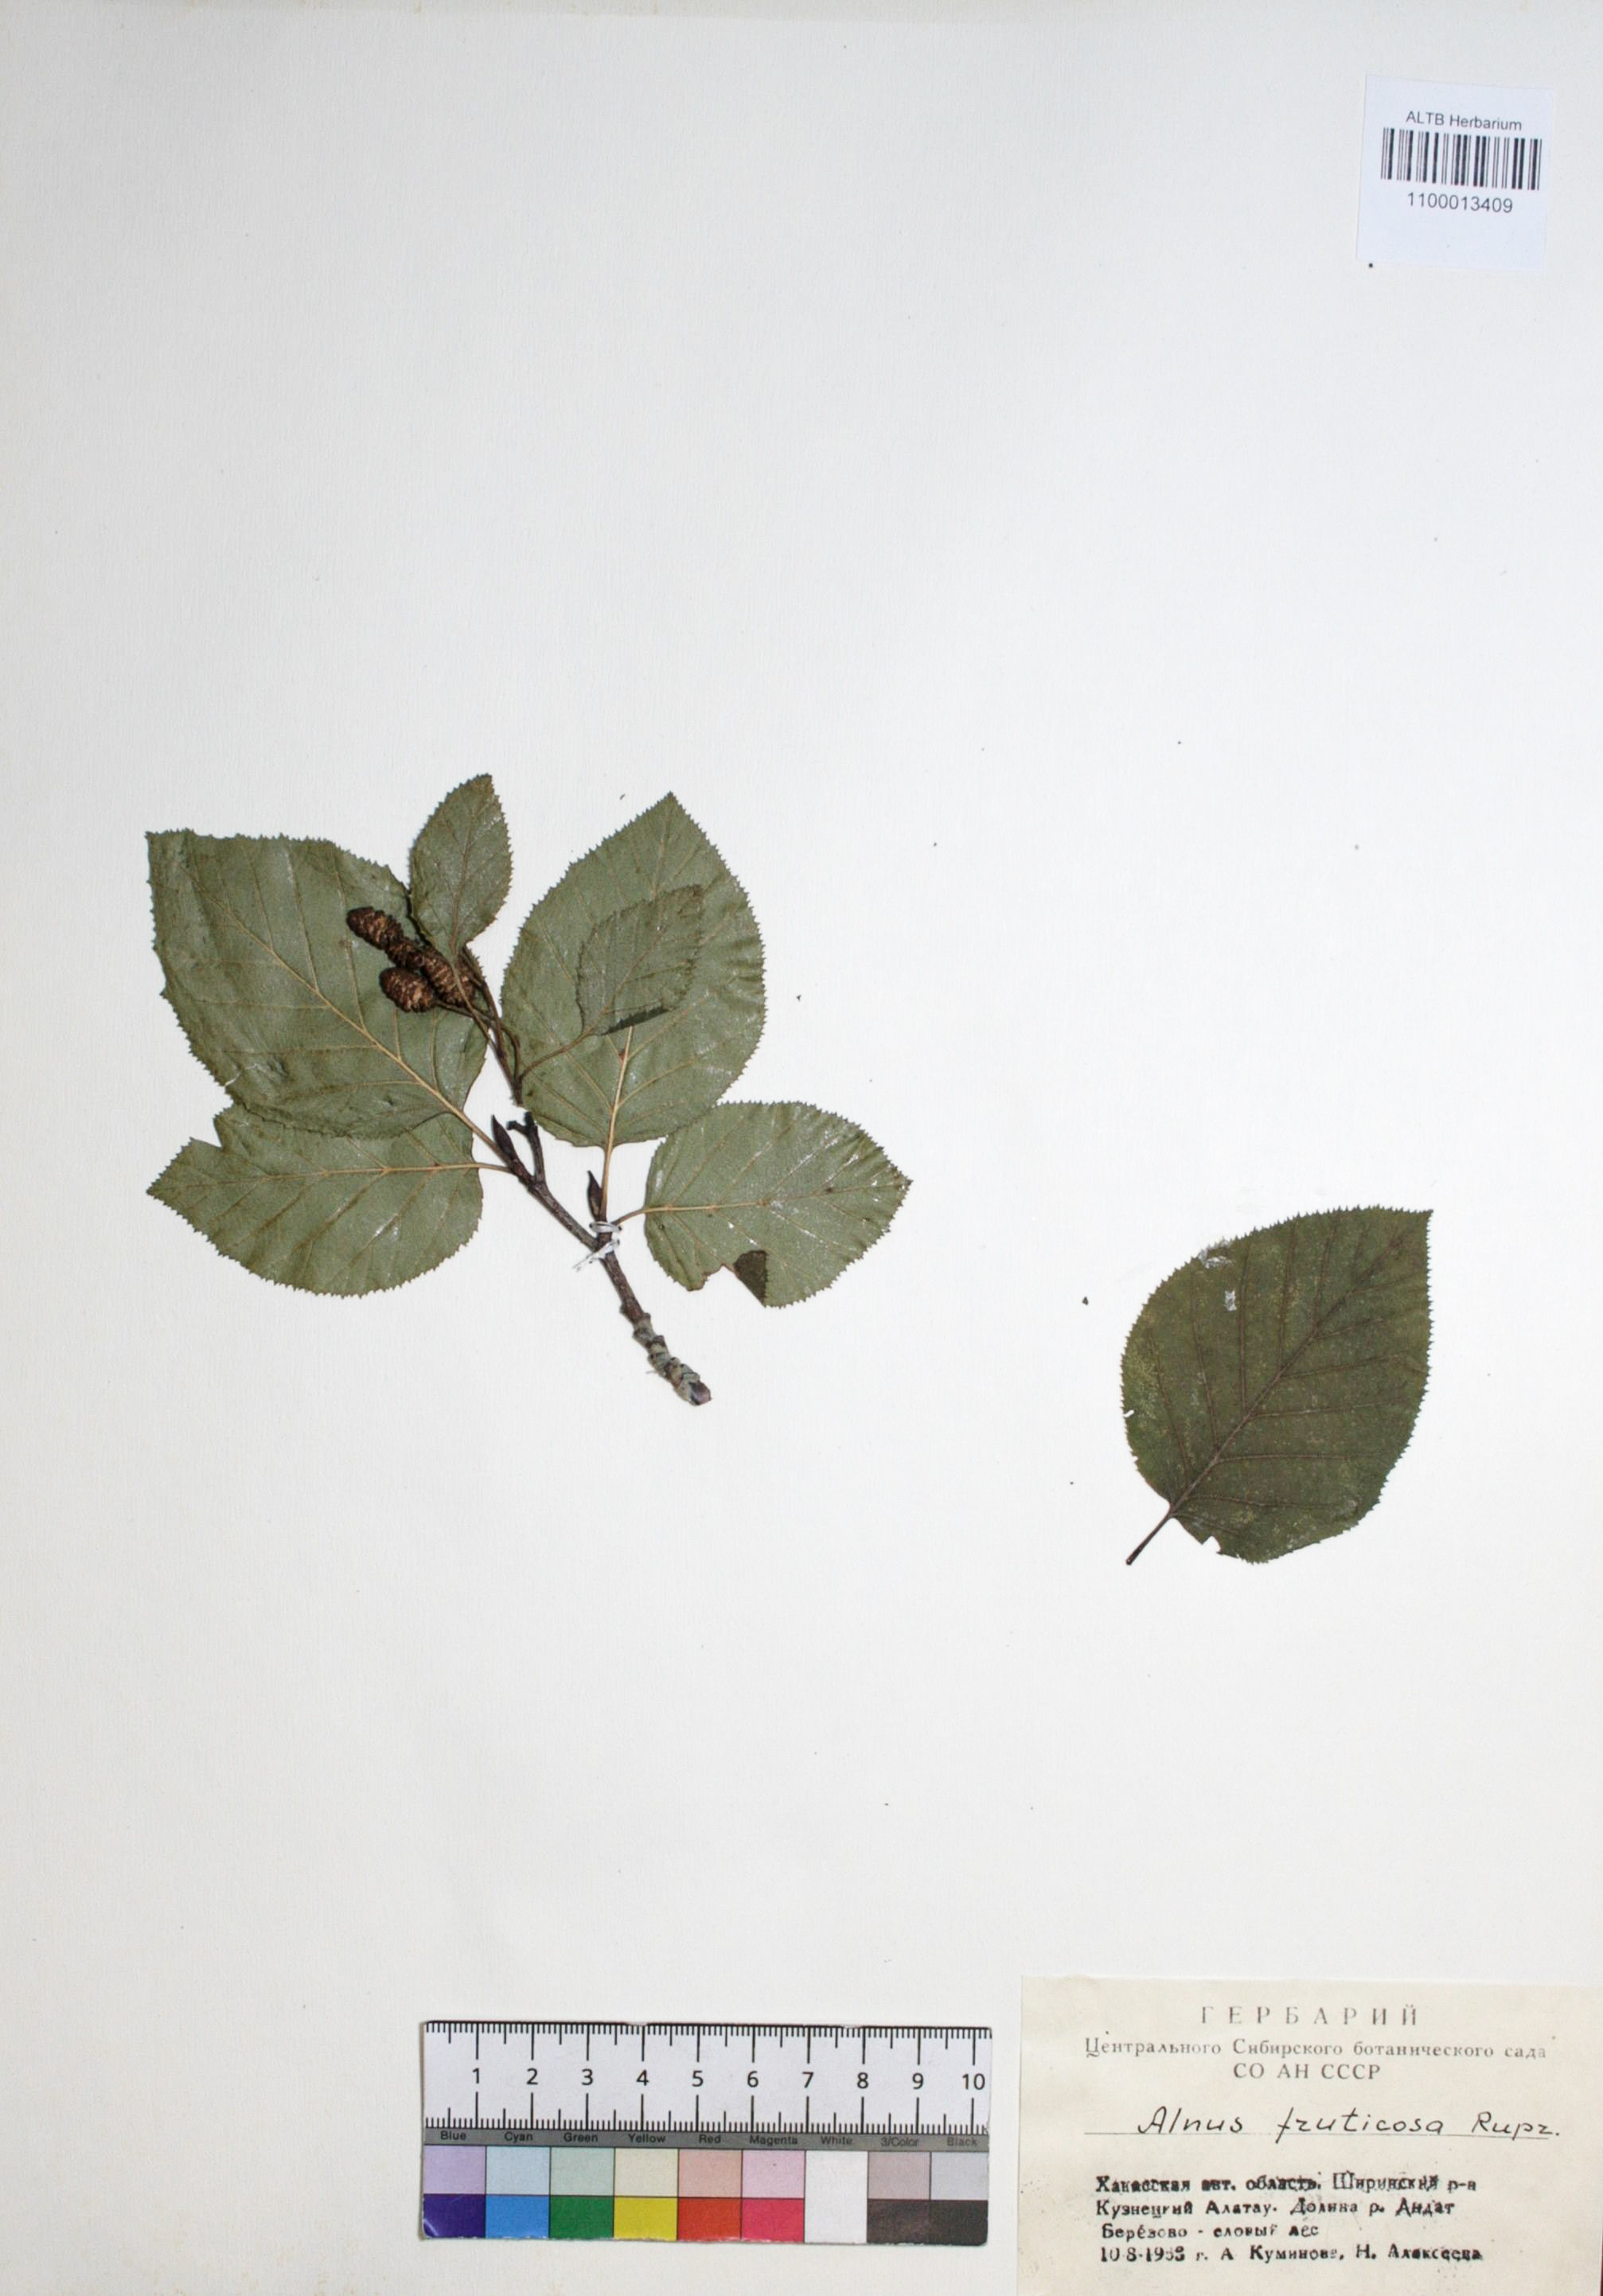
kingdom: Plantae
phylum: Tracheophyta
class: Magnoliopsida
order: Fagales
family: Betulaceae
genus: Alnus
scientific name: Alnus alnobetula
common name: Green alder
